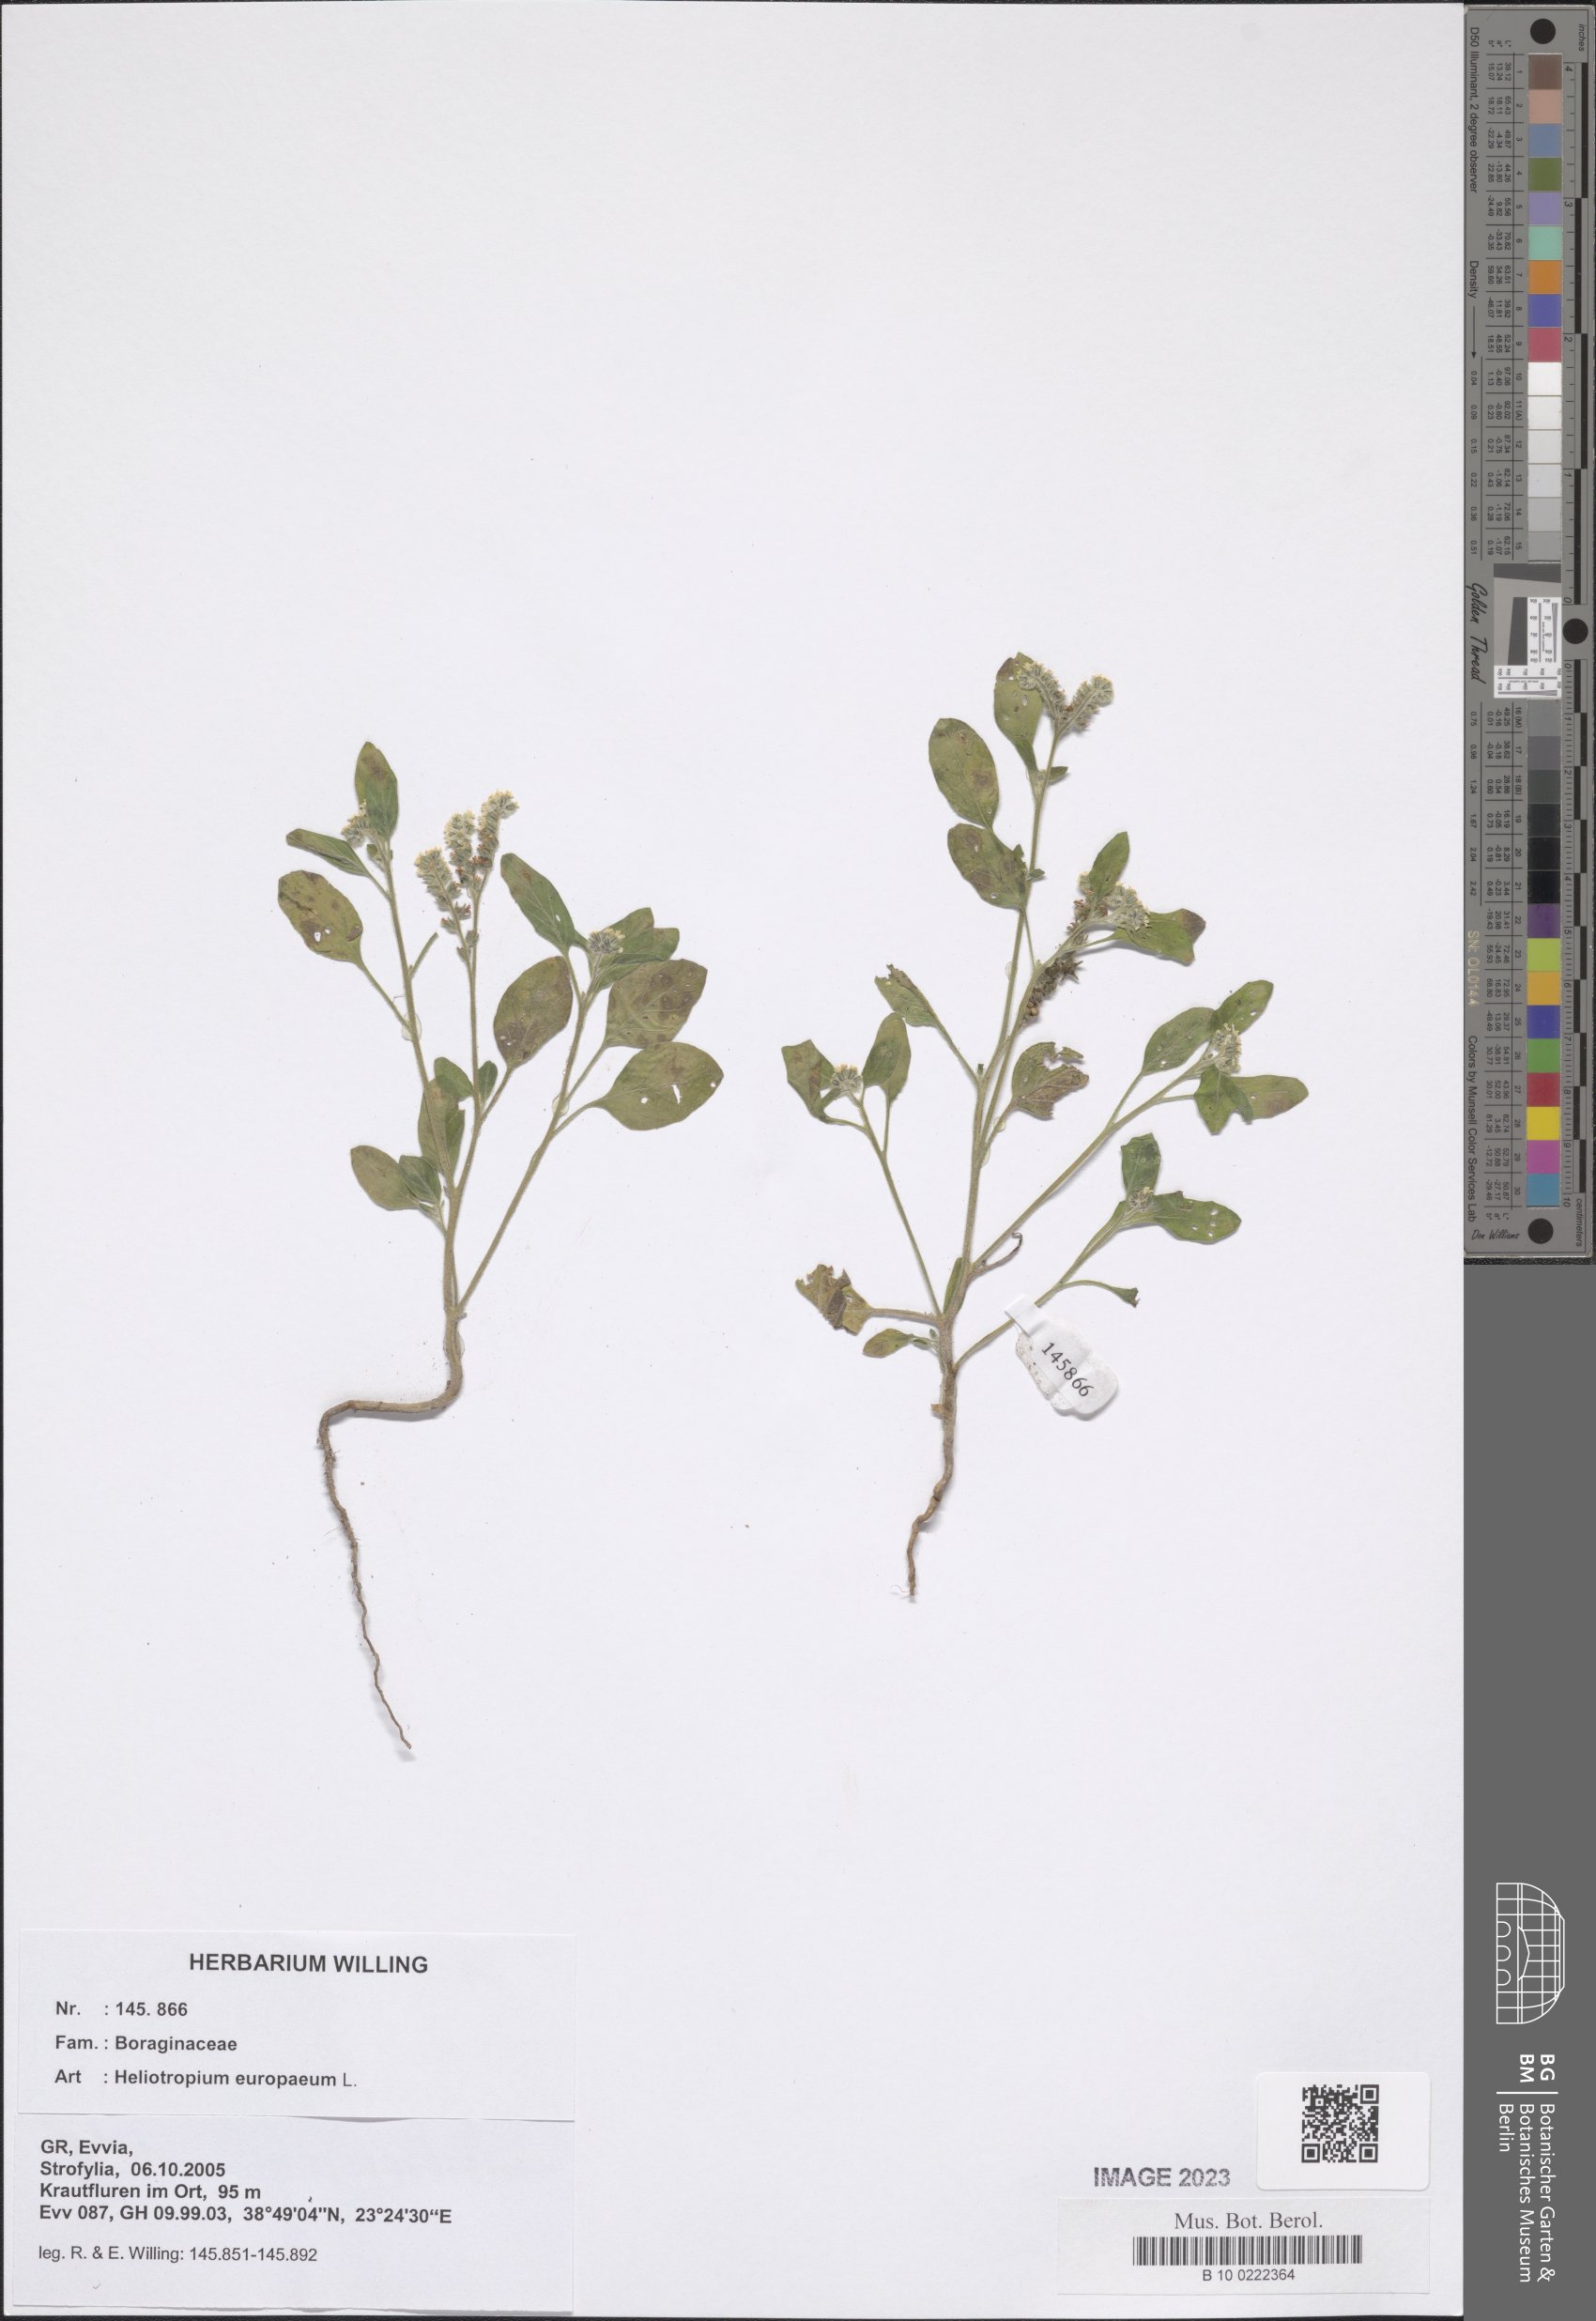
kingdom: Plantae
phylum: Tracheophyta
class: Magnoliopsida
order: Boraginales
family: Heliotropiaceae
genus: Heliotropium
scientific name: Heliotropium europaeum
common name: European heliotrope
